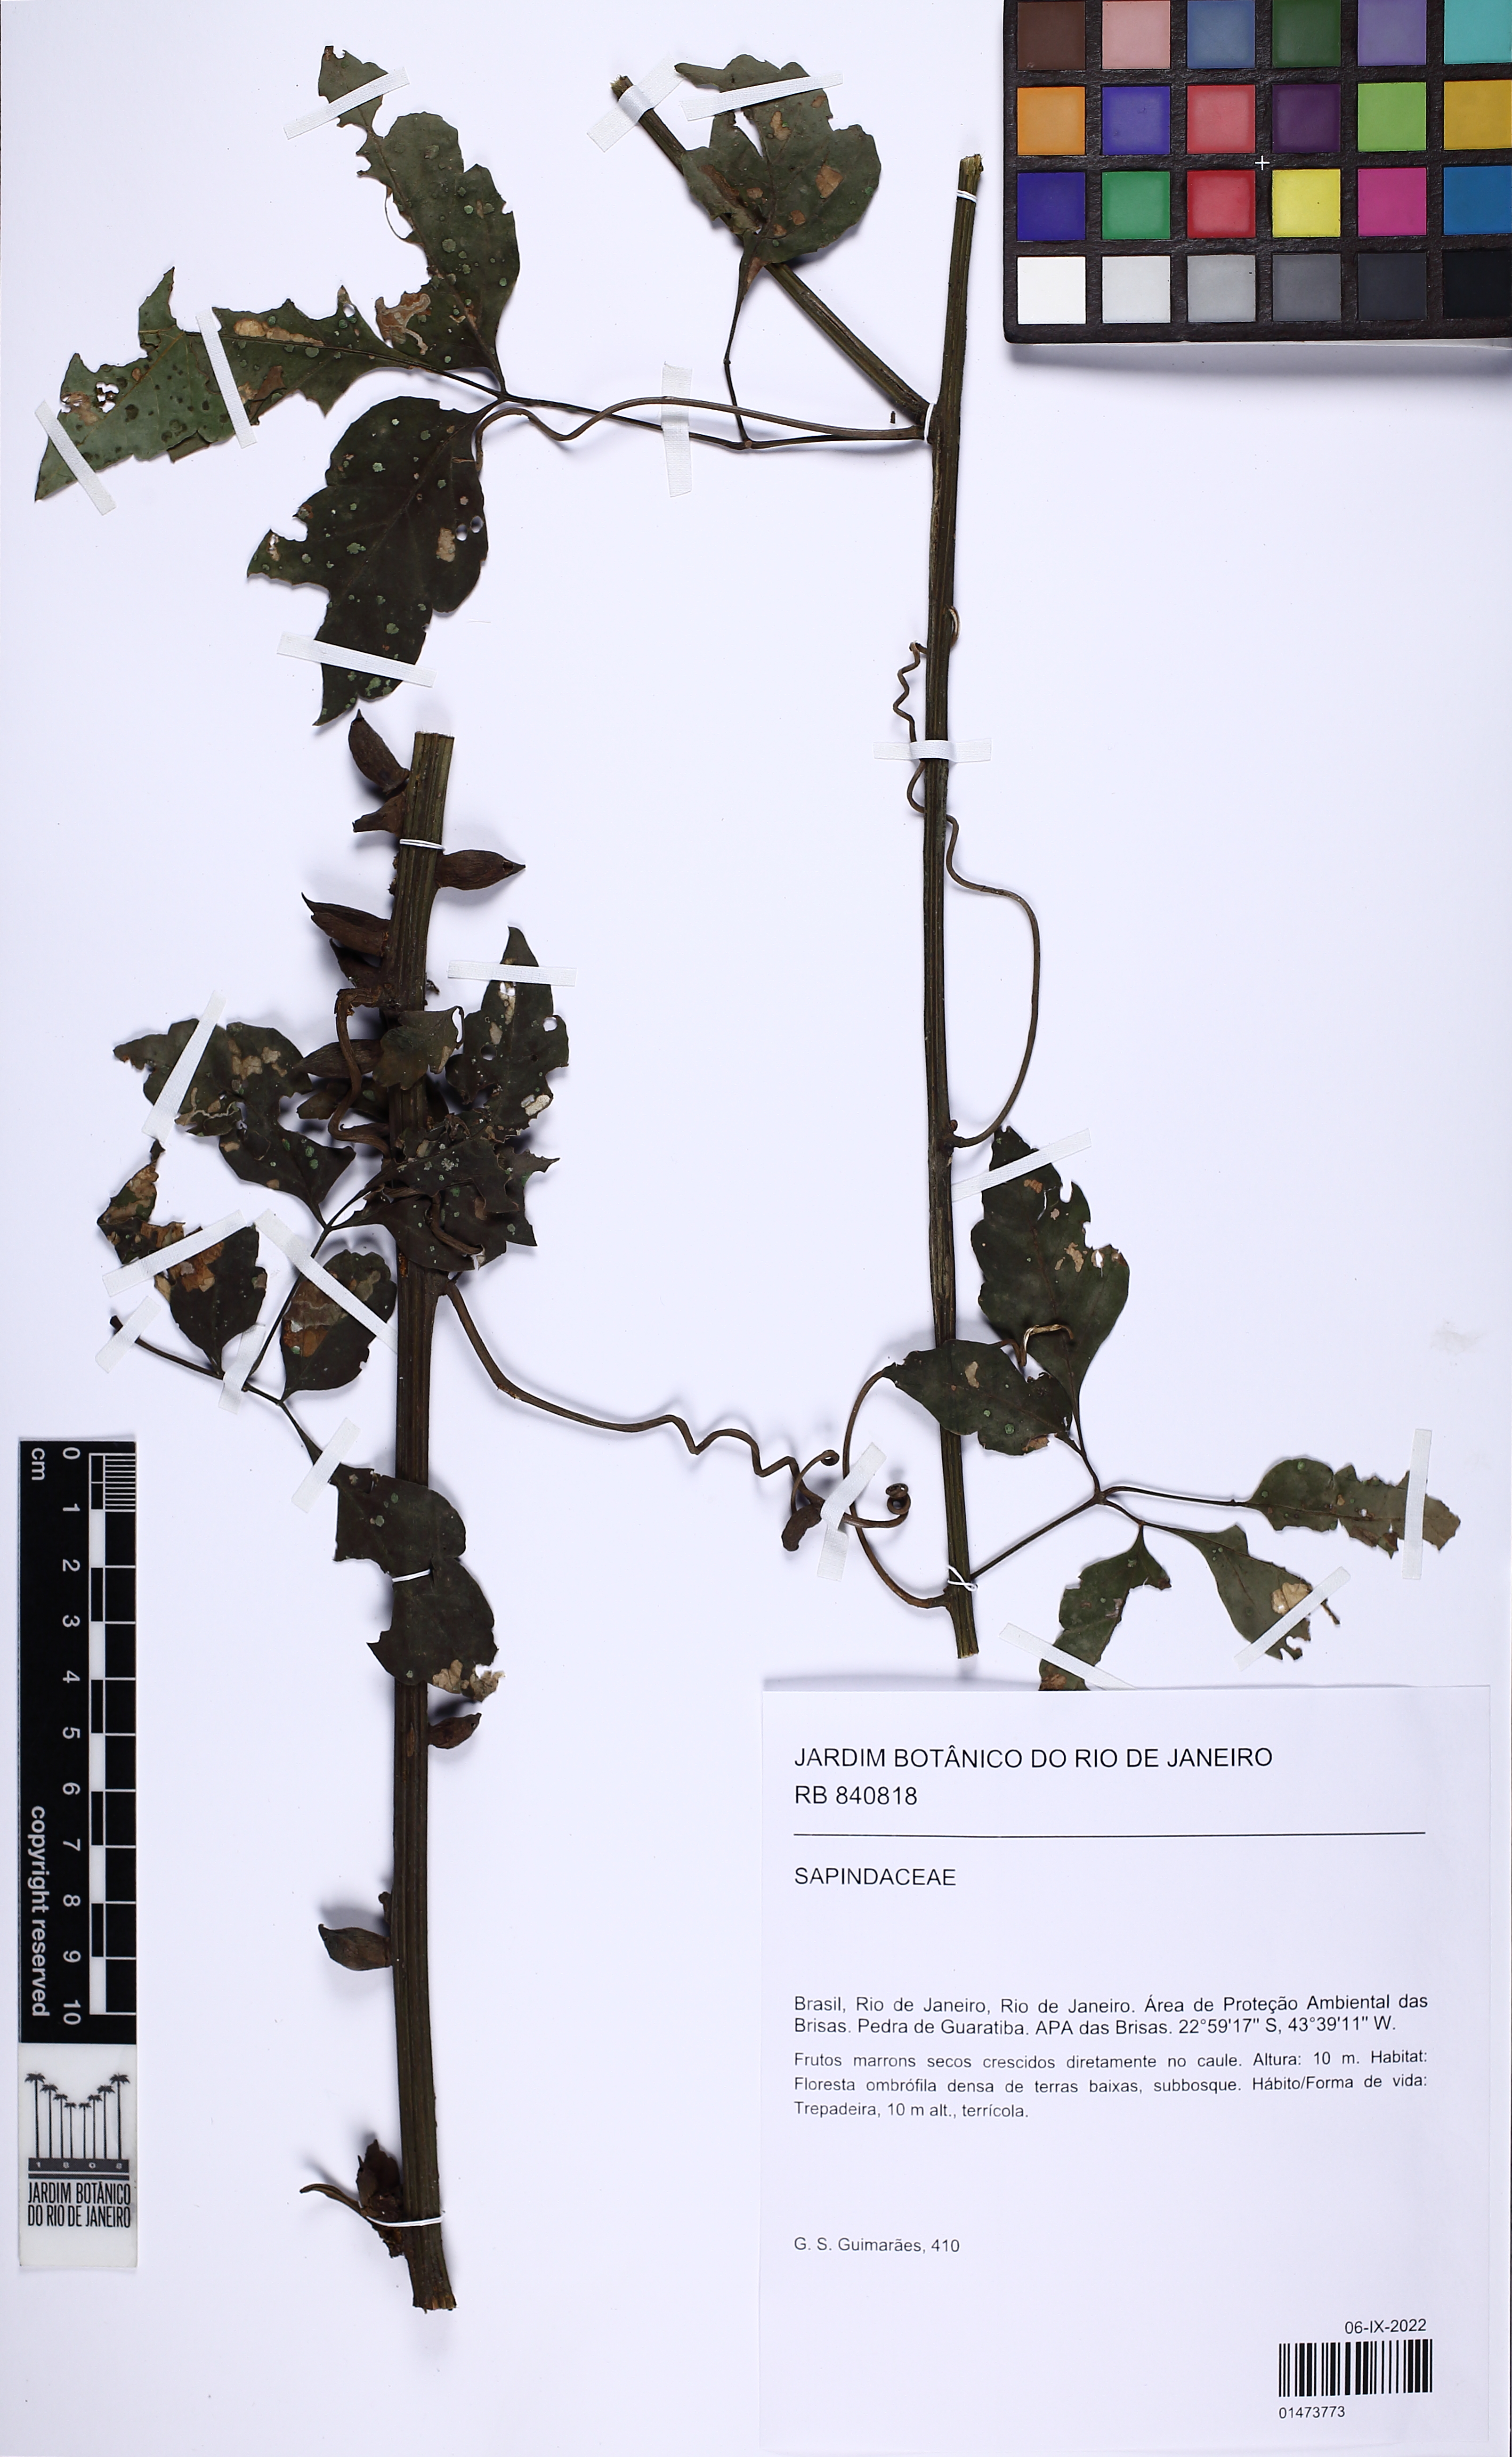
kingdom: Plantae
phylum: Tracheophyta
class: Magnoliopsida
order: Sapindales
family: Sapindaceae
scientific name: Sapindaceae
